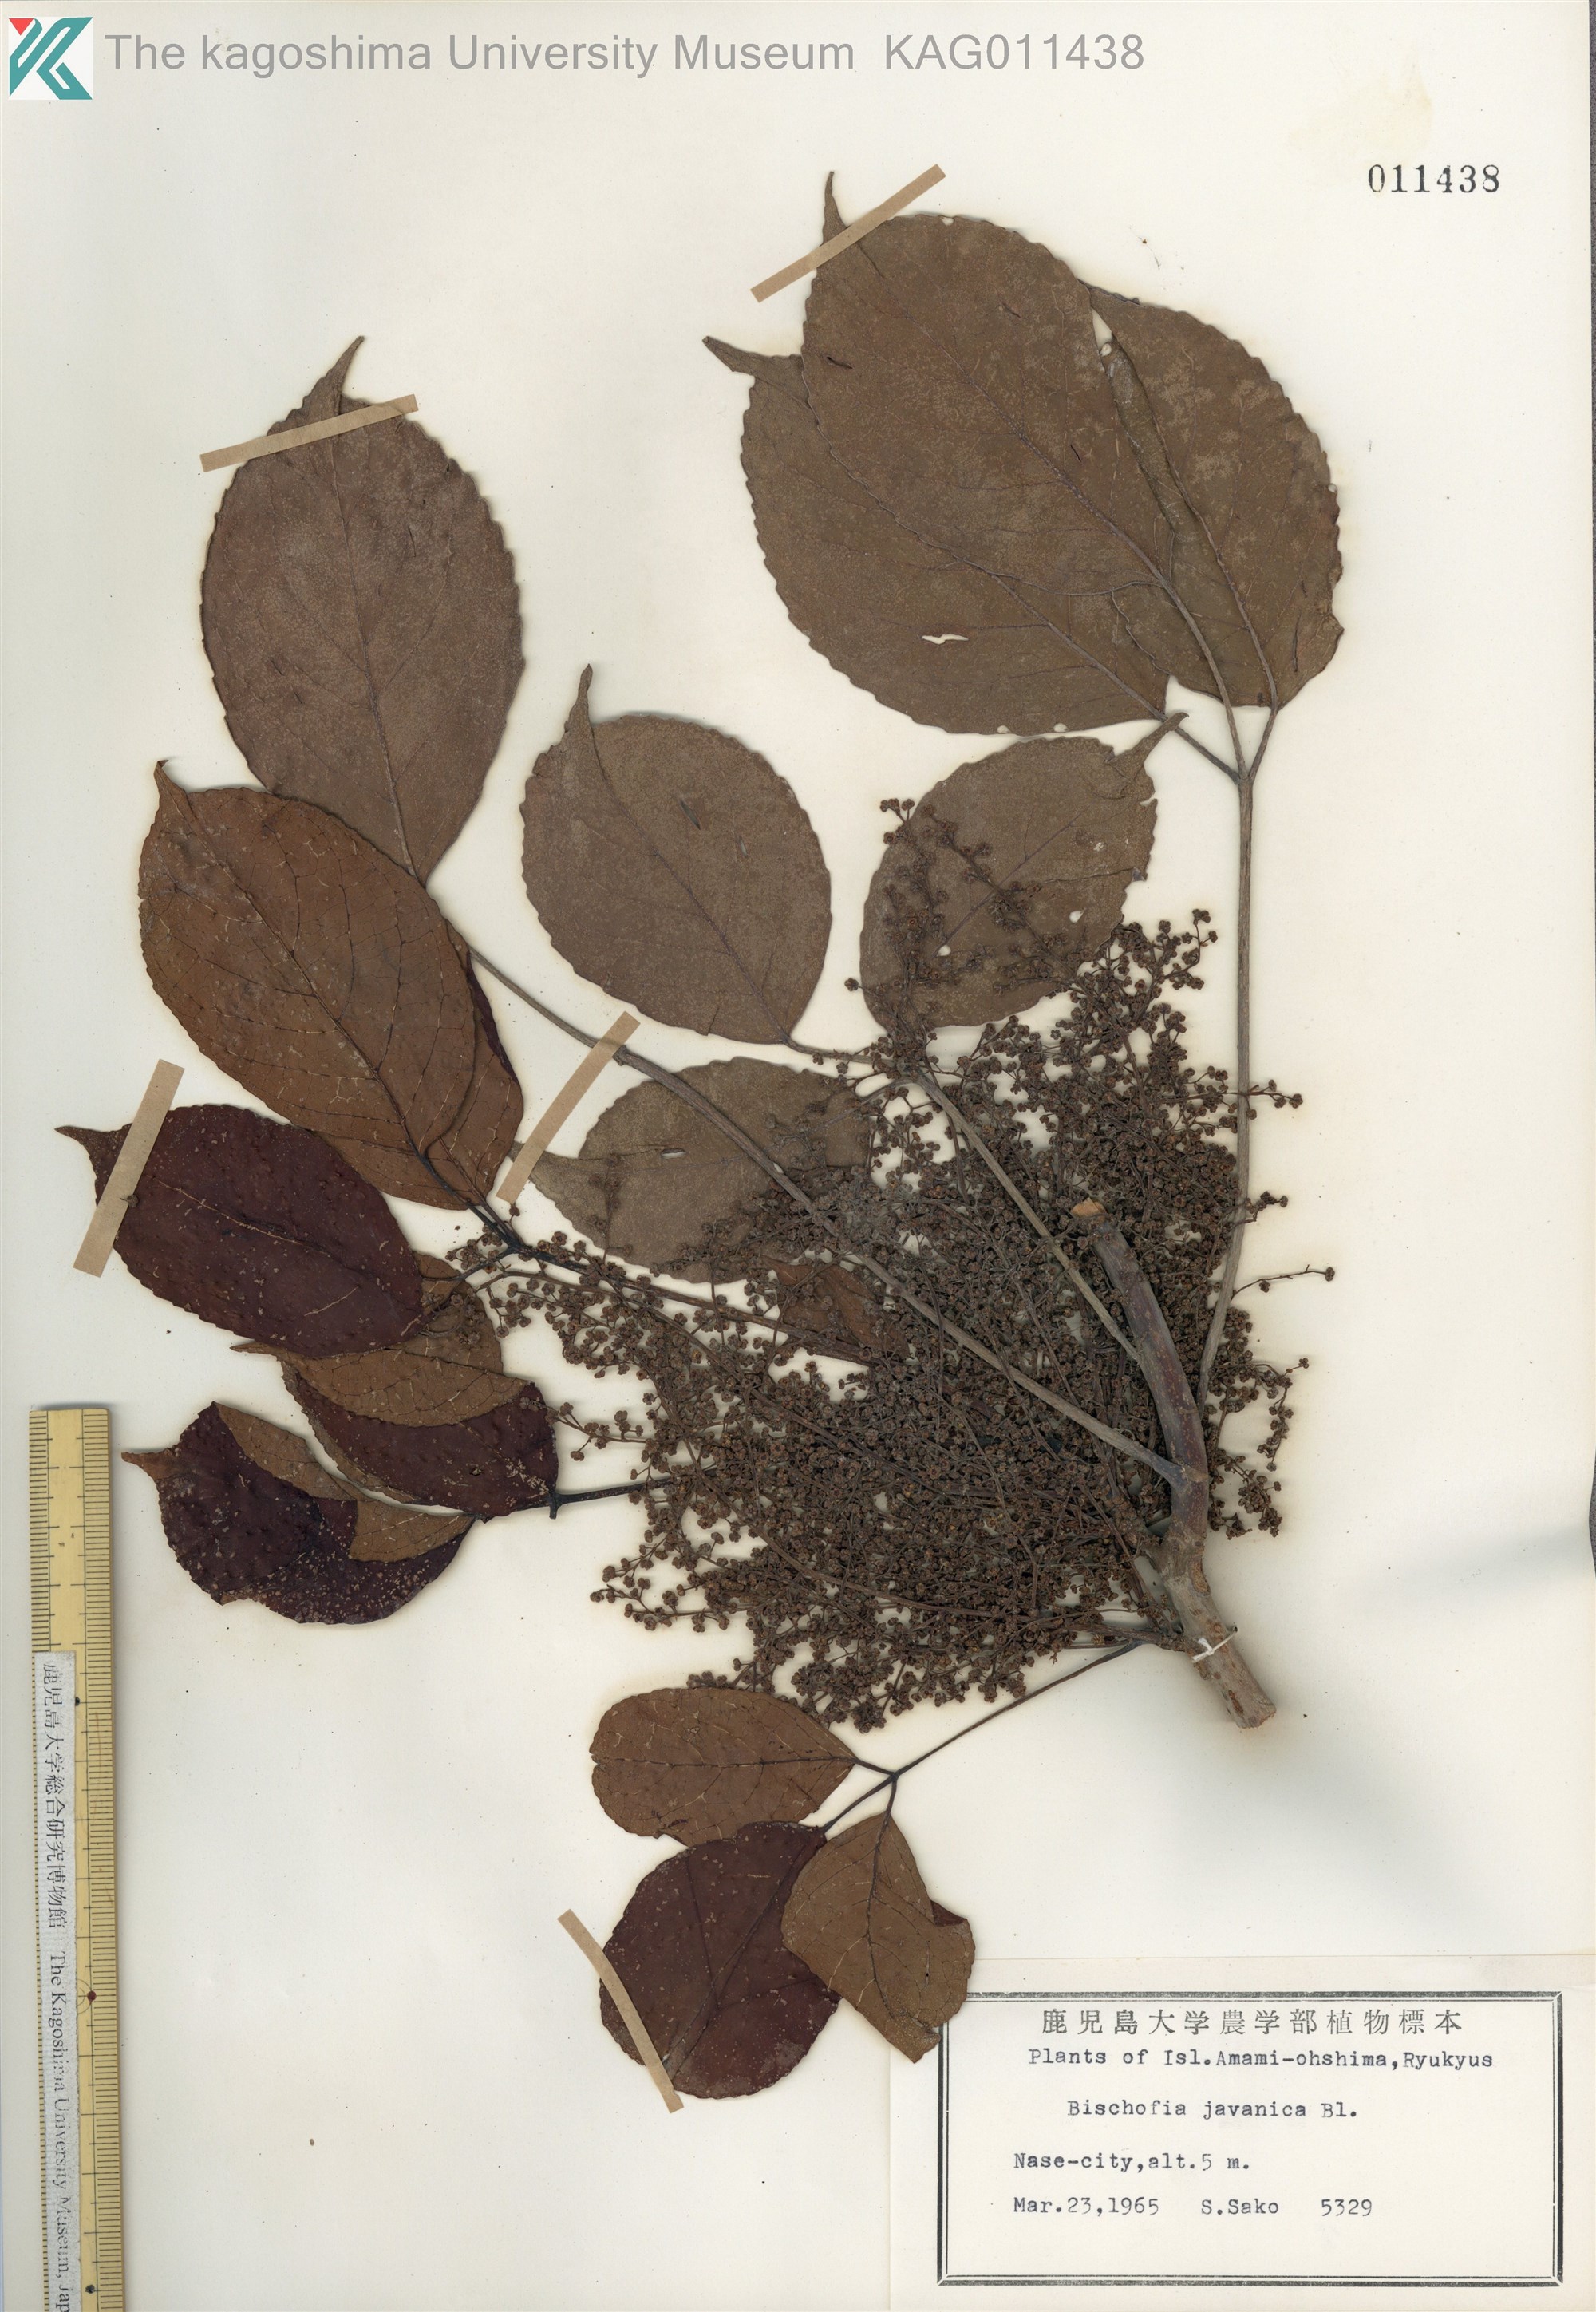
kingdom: Plantae
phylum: Tracheophyta
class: Magnoliopsida
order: Malpighiales
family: Phyllanthaceae
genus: Bischofia
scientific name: Bischofia javanica
